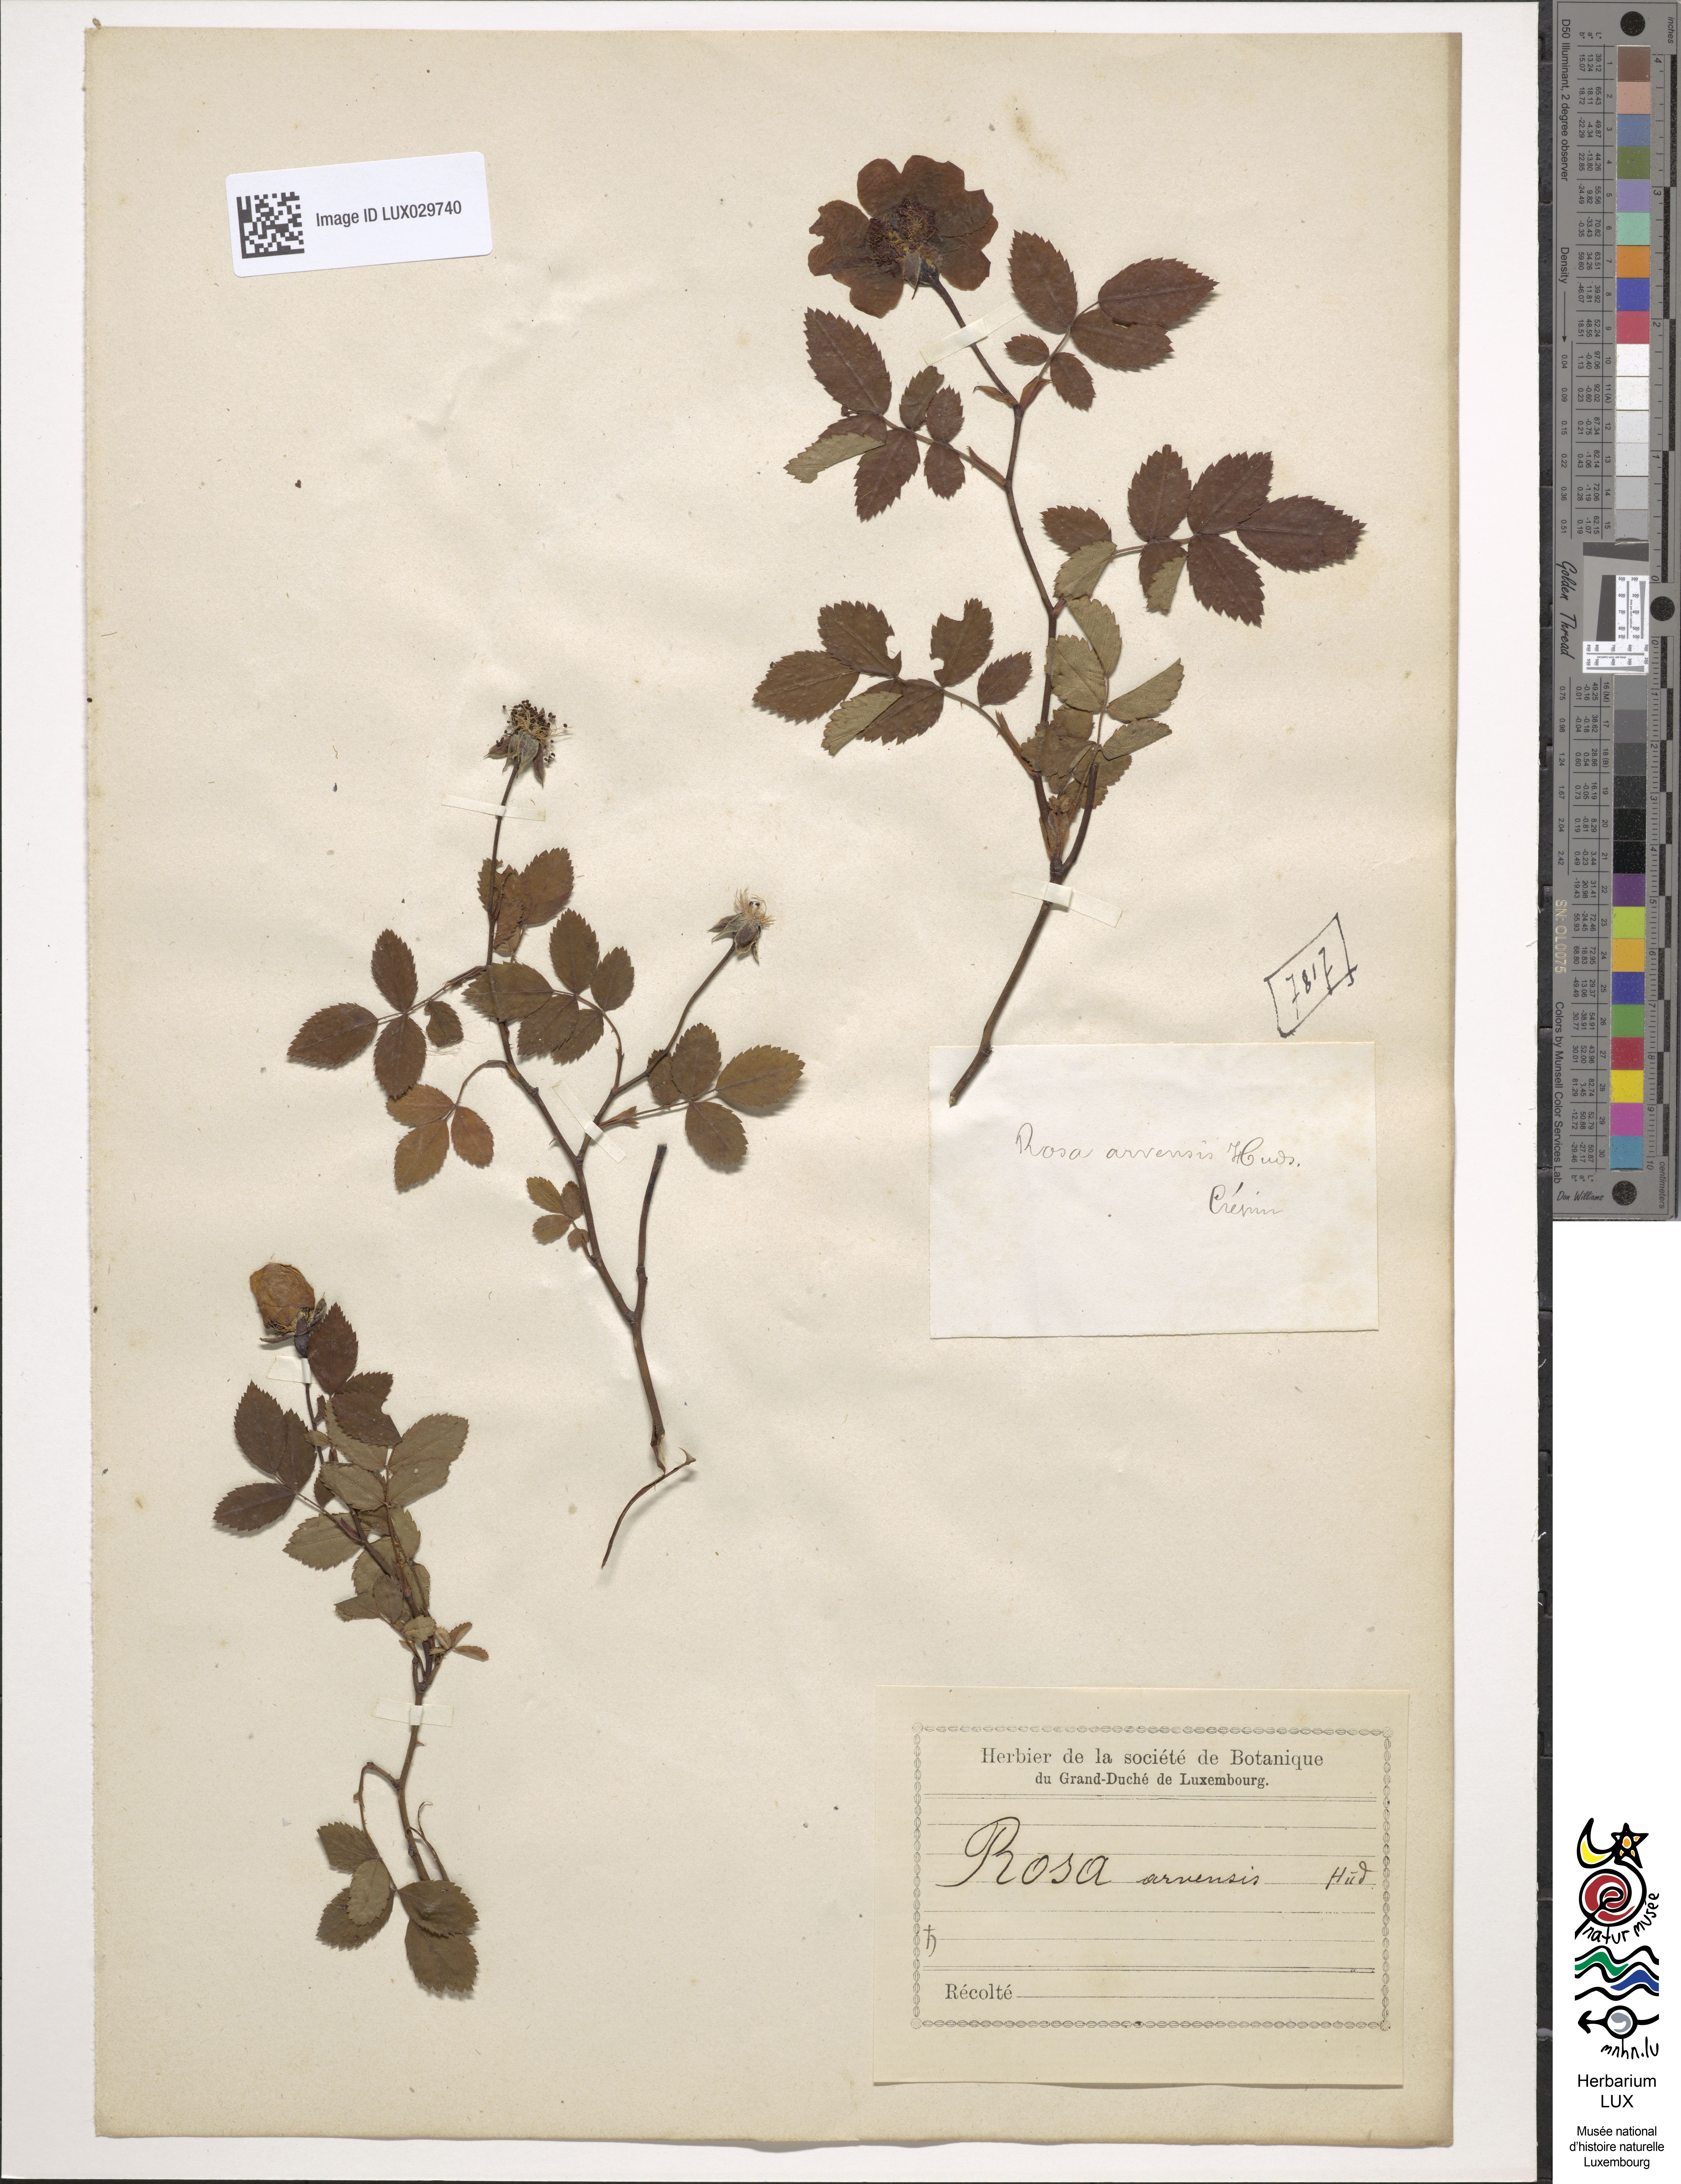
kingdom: Plantae
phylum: Tracheophyta
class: Magnoliopsida
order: Rosales
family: Rosaceae
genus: Rosa
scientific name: Rosa arvensis
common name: Field rose
